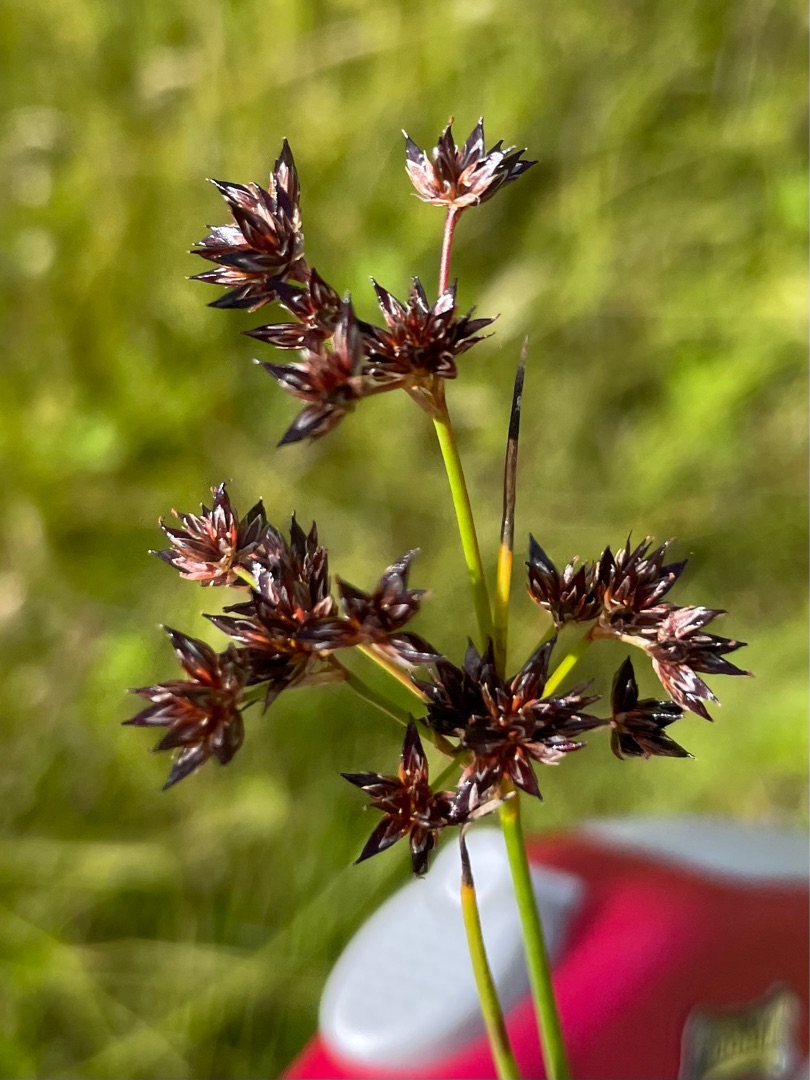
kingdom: Plantae
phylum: Tracheophyta
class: Liliopsida
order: Poales
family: Juncaceae
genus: Juncus
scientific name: Juncus articulatus
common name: Glanskapslet siv
